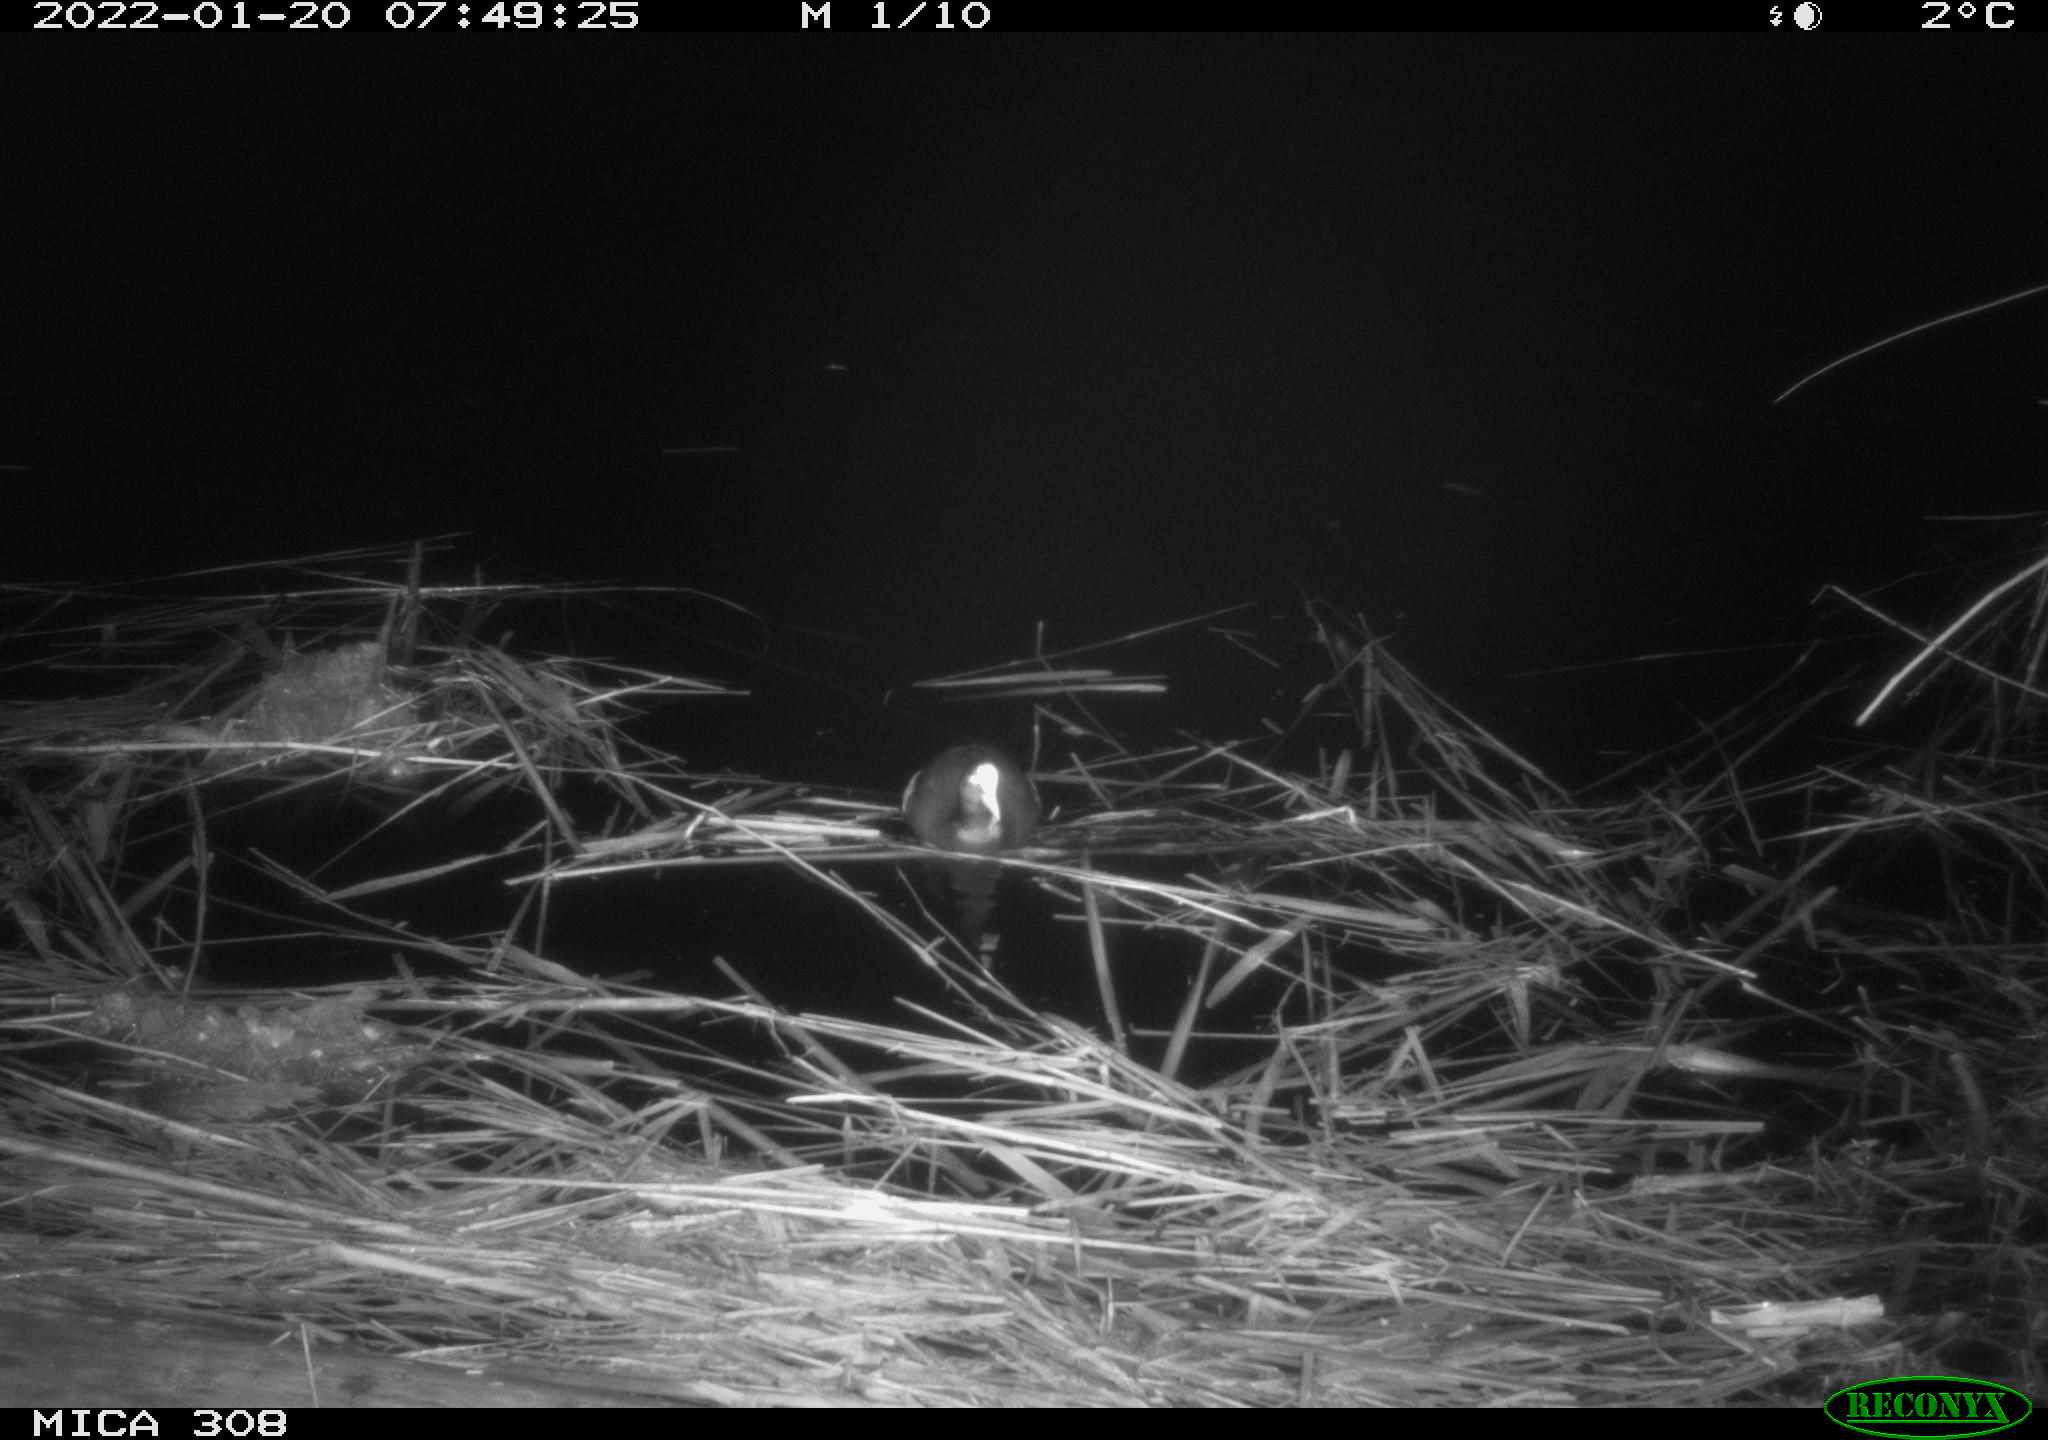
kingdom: Animalia
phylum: Chordata
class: Aves
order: Anseriformes
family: Anatidae
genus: Anas
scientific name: Anas
